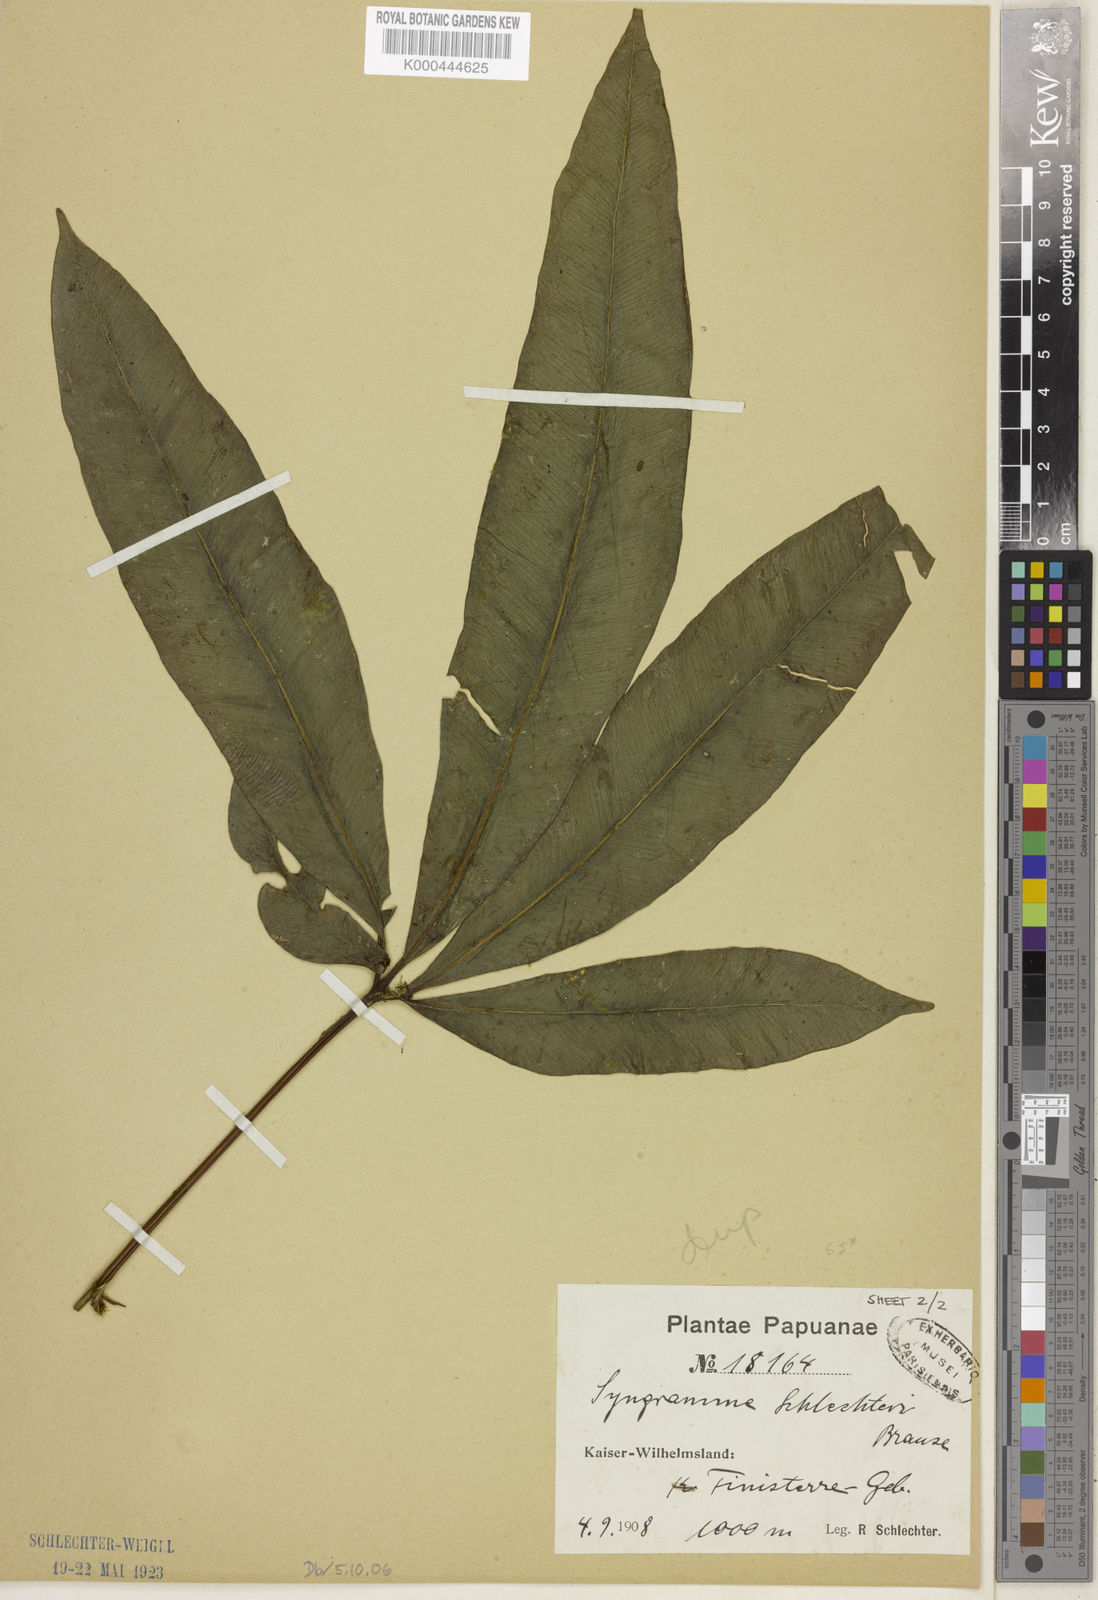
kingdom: Plantae
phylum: Tracheophyta
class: Polypodiopsida
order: Polypodiales
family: Pteridaceae
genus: Syngramma
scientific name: Syngramma quinata
